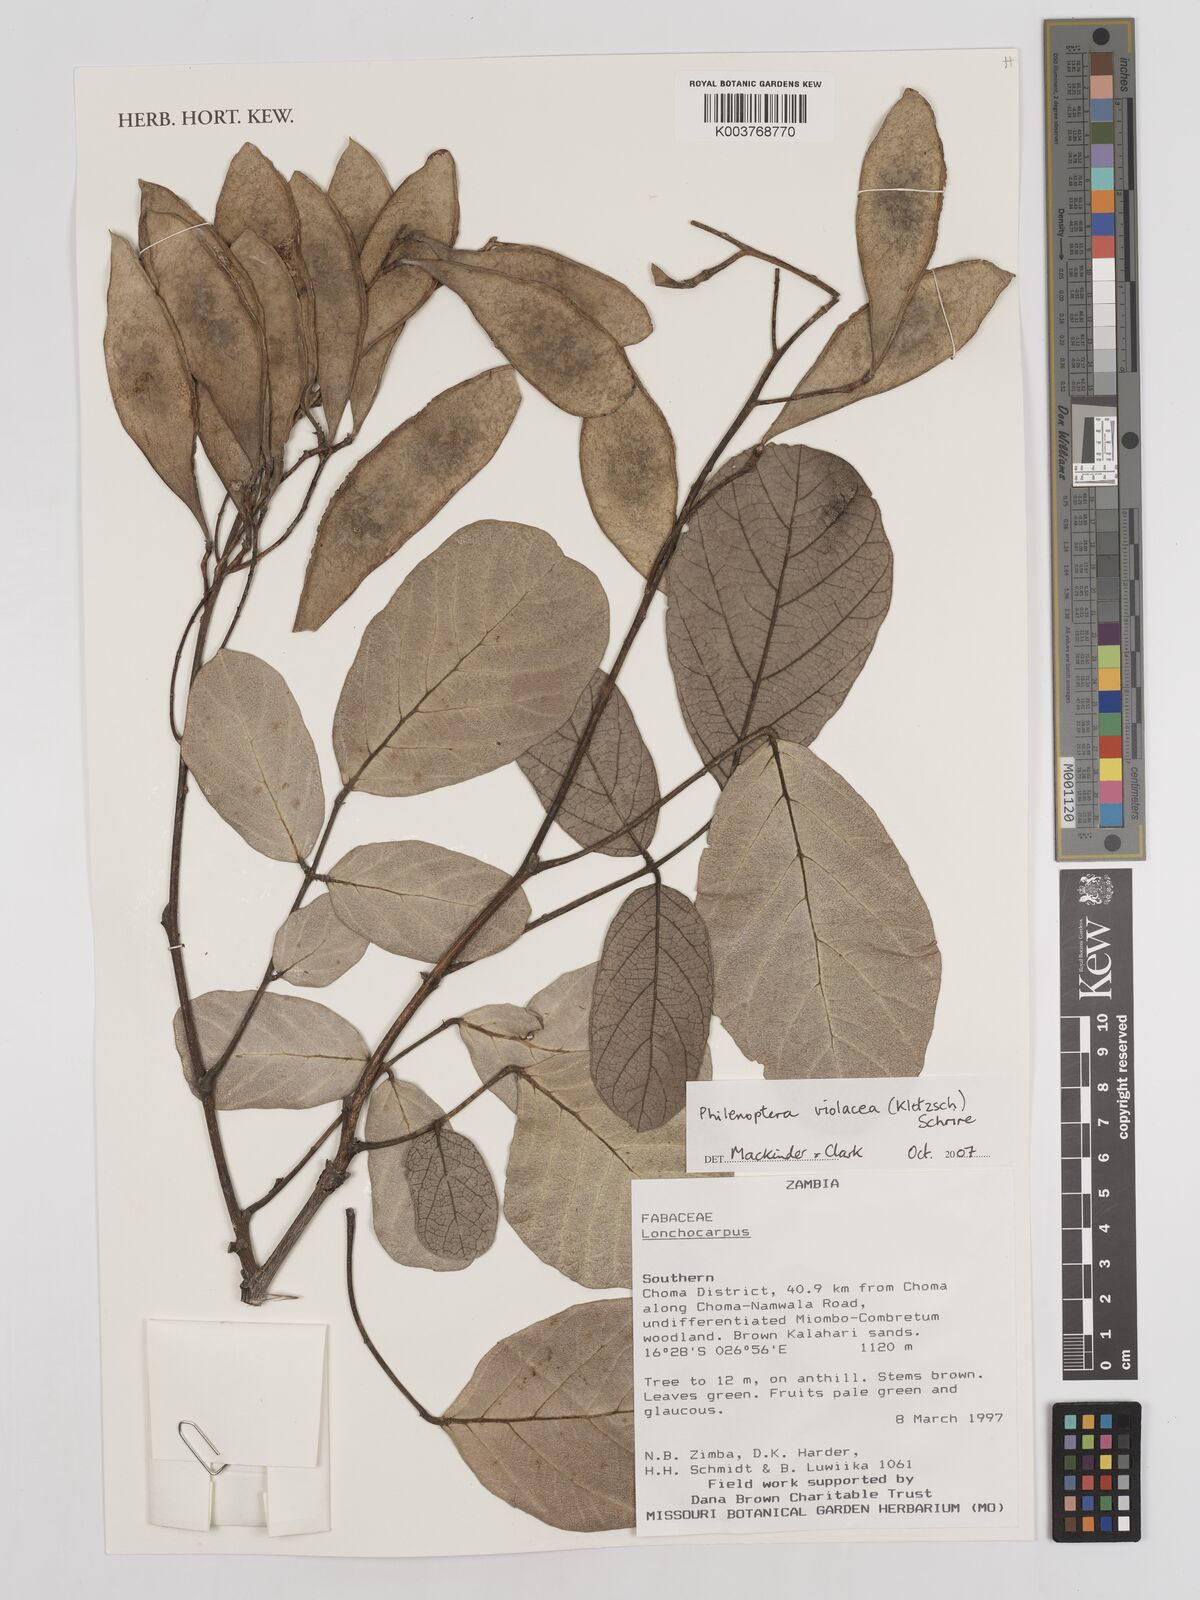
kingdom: Plantae
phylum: Tracheophyta
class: Magnoliopsida
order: Fabales
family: Fabaceae
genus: Philenoptera
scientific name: Philenoptera violacea
